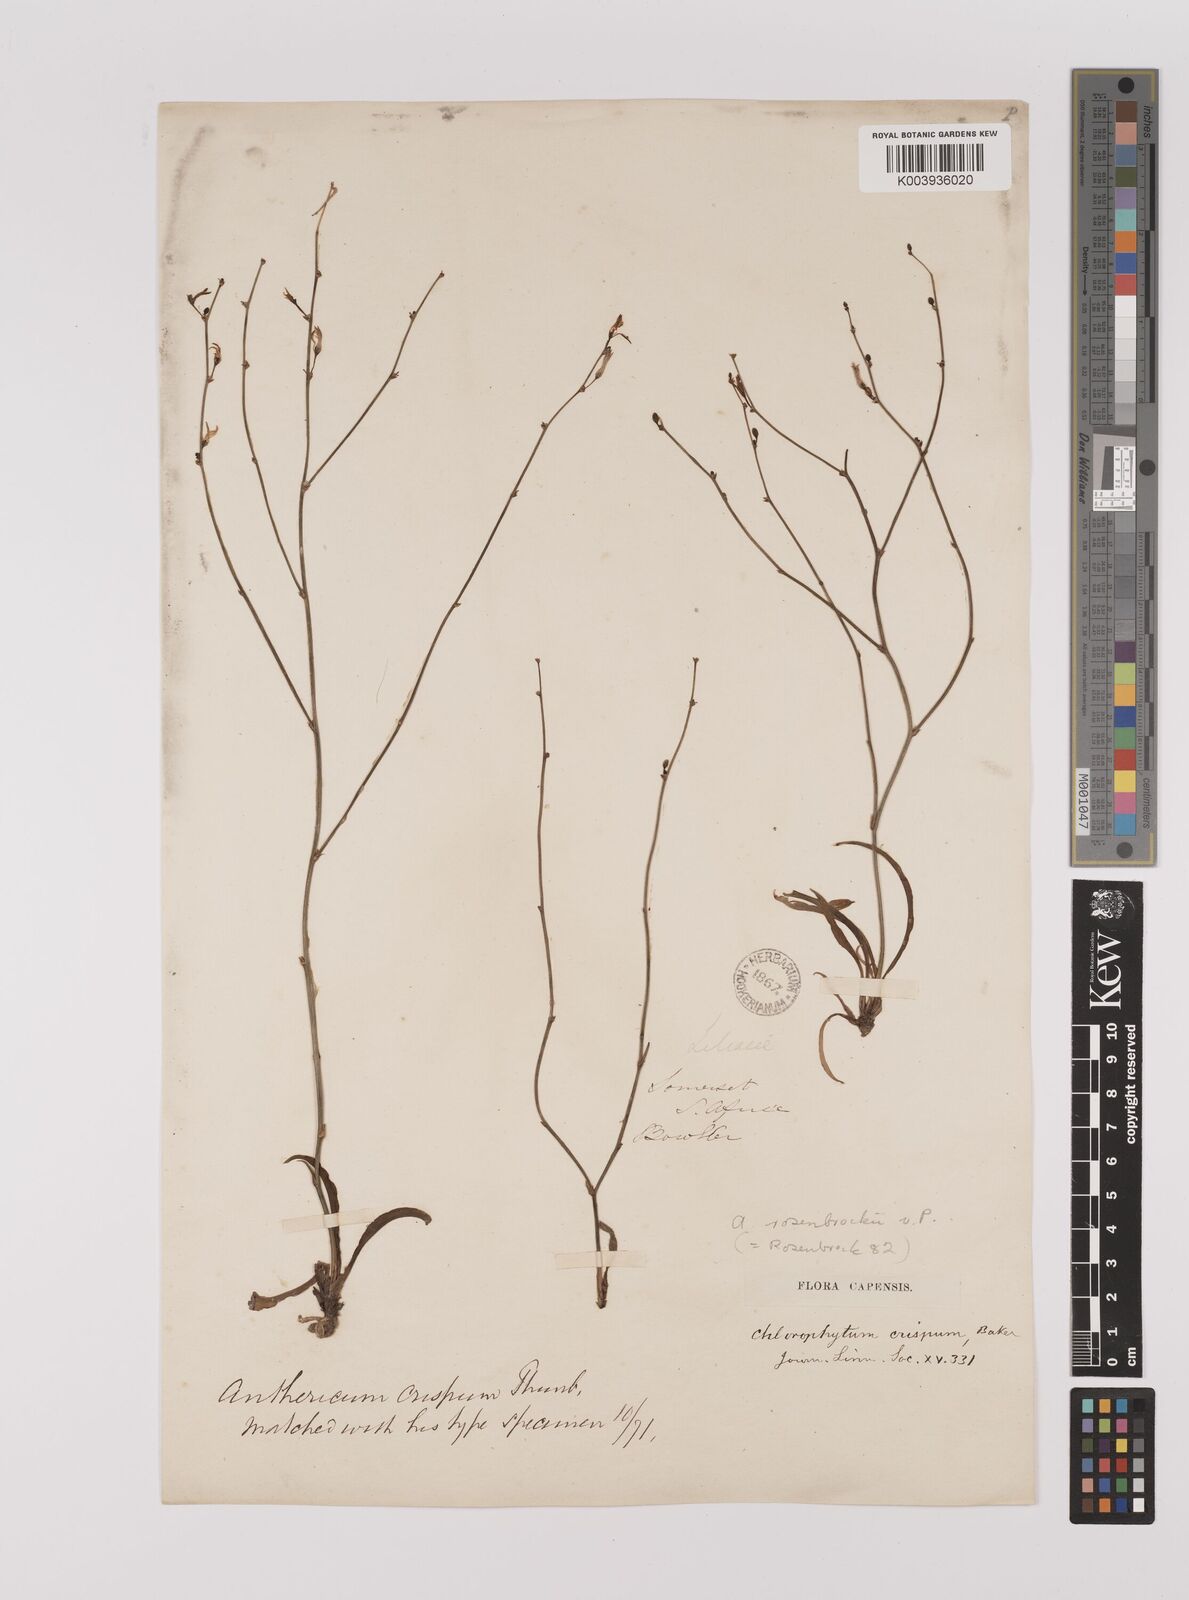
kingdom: Plantae
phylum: Tracheophyta
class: Liliopsida
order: Asparagales
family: Asparagaceae
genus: Chlorophytum
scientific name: Chlorophytum crispum
